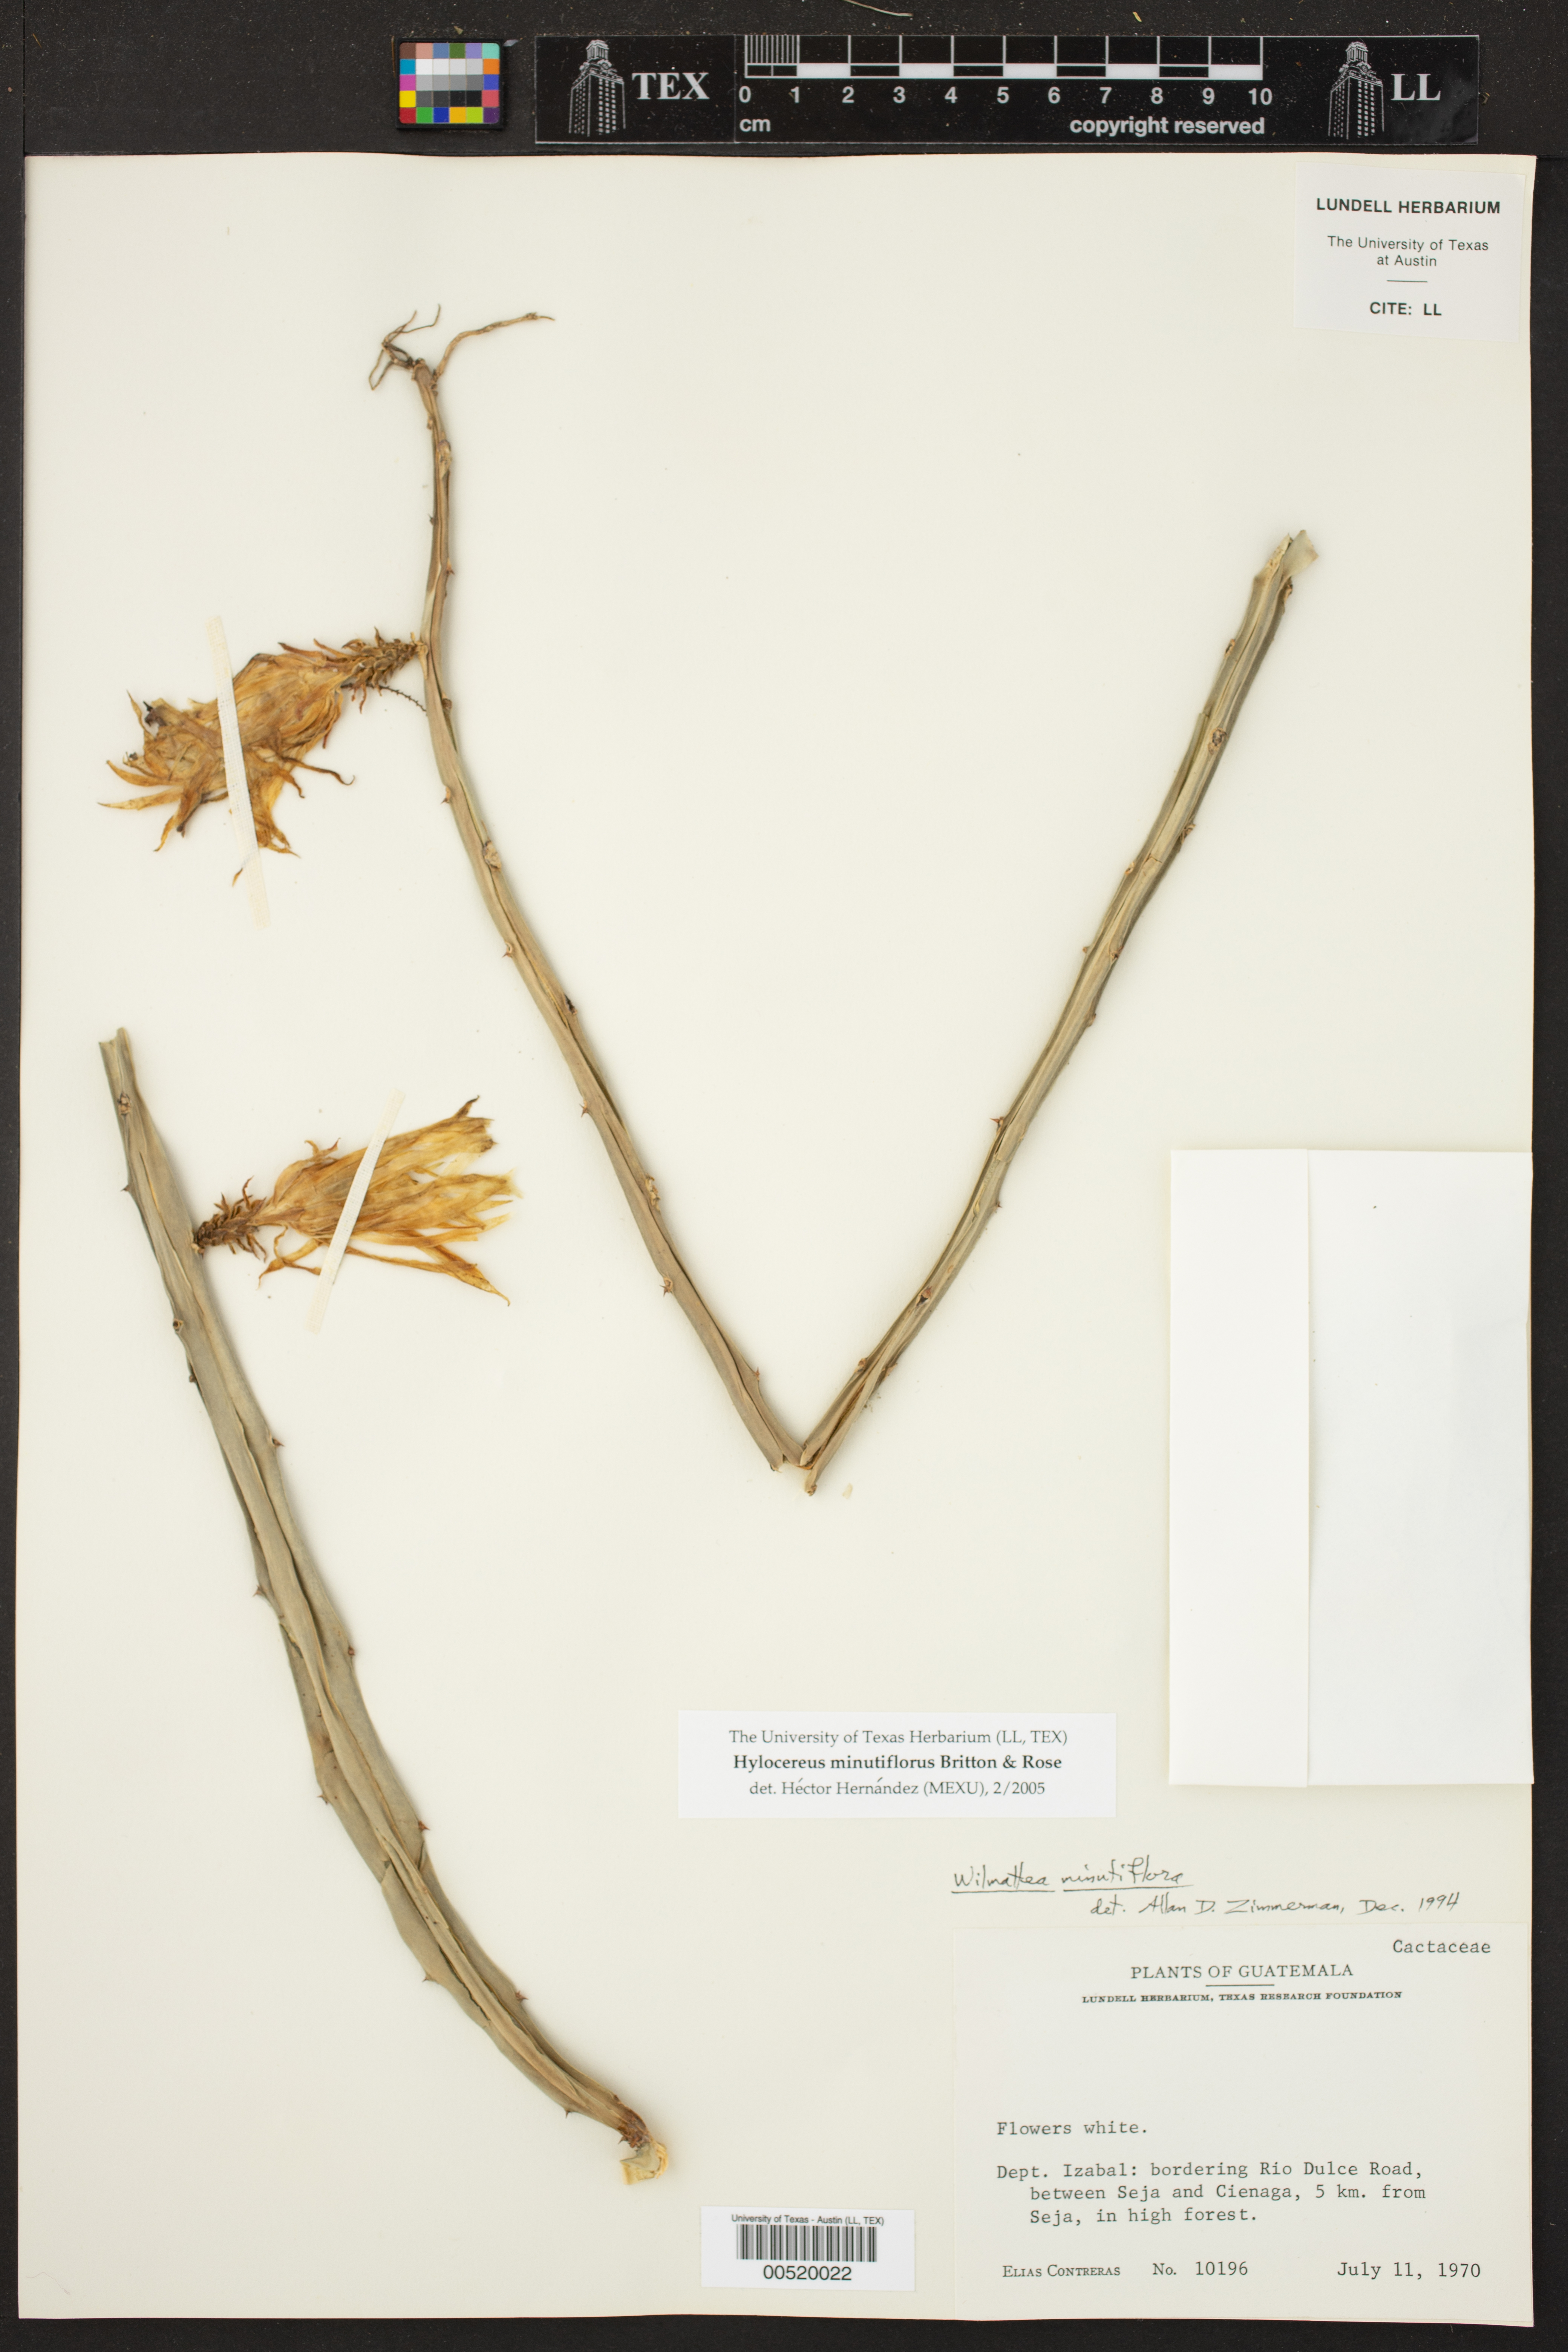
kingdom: Plantae
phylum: Tracheophyta
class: Magnoliopsida
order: Caryophyllales
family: Cactaceae
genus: Selenicereus
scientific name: Selenicereus minutiflorus
